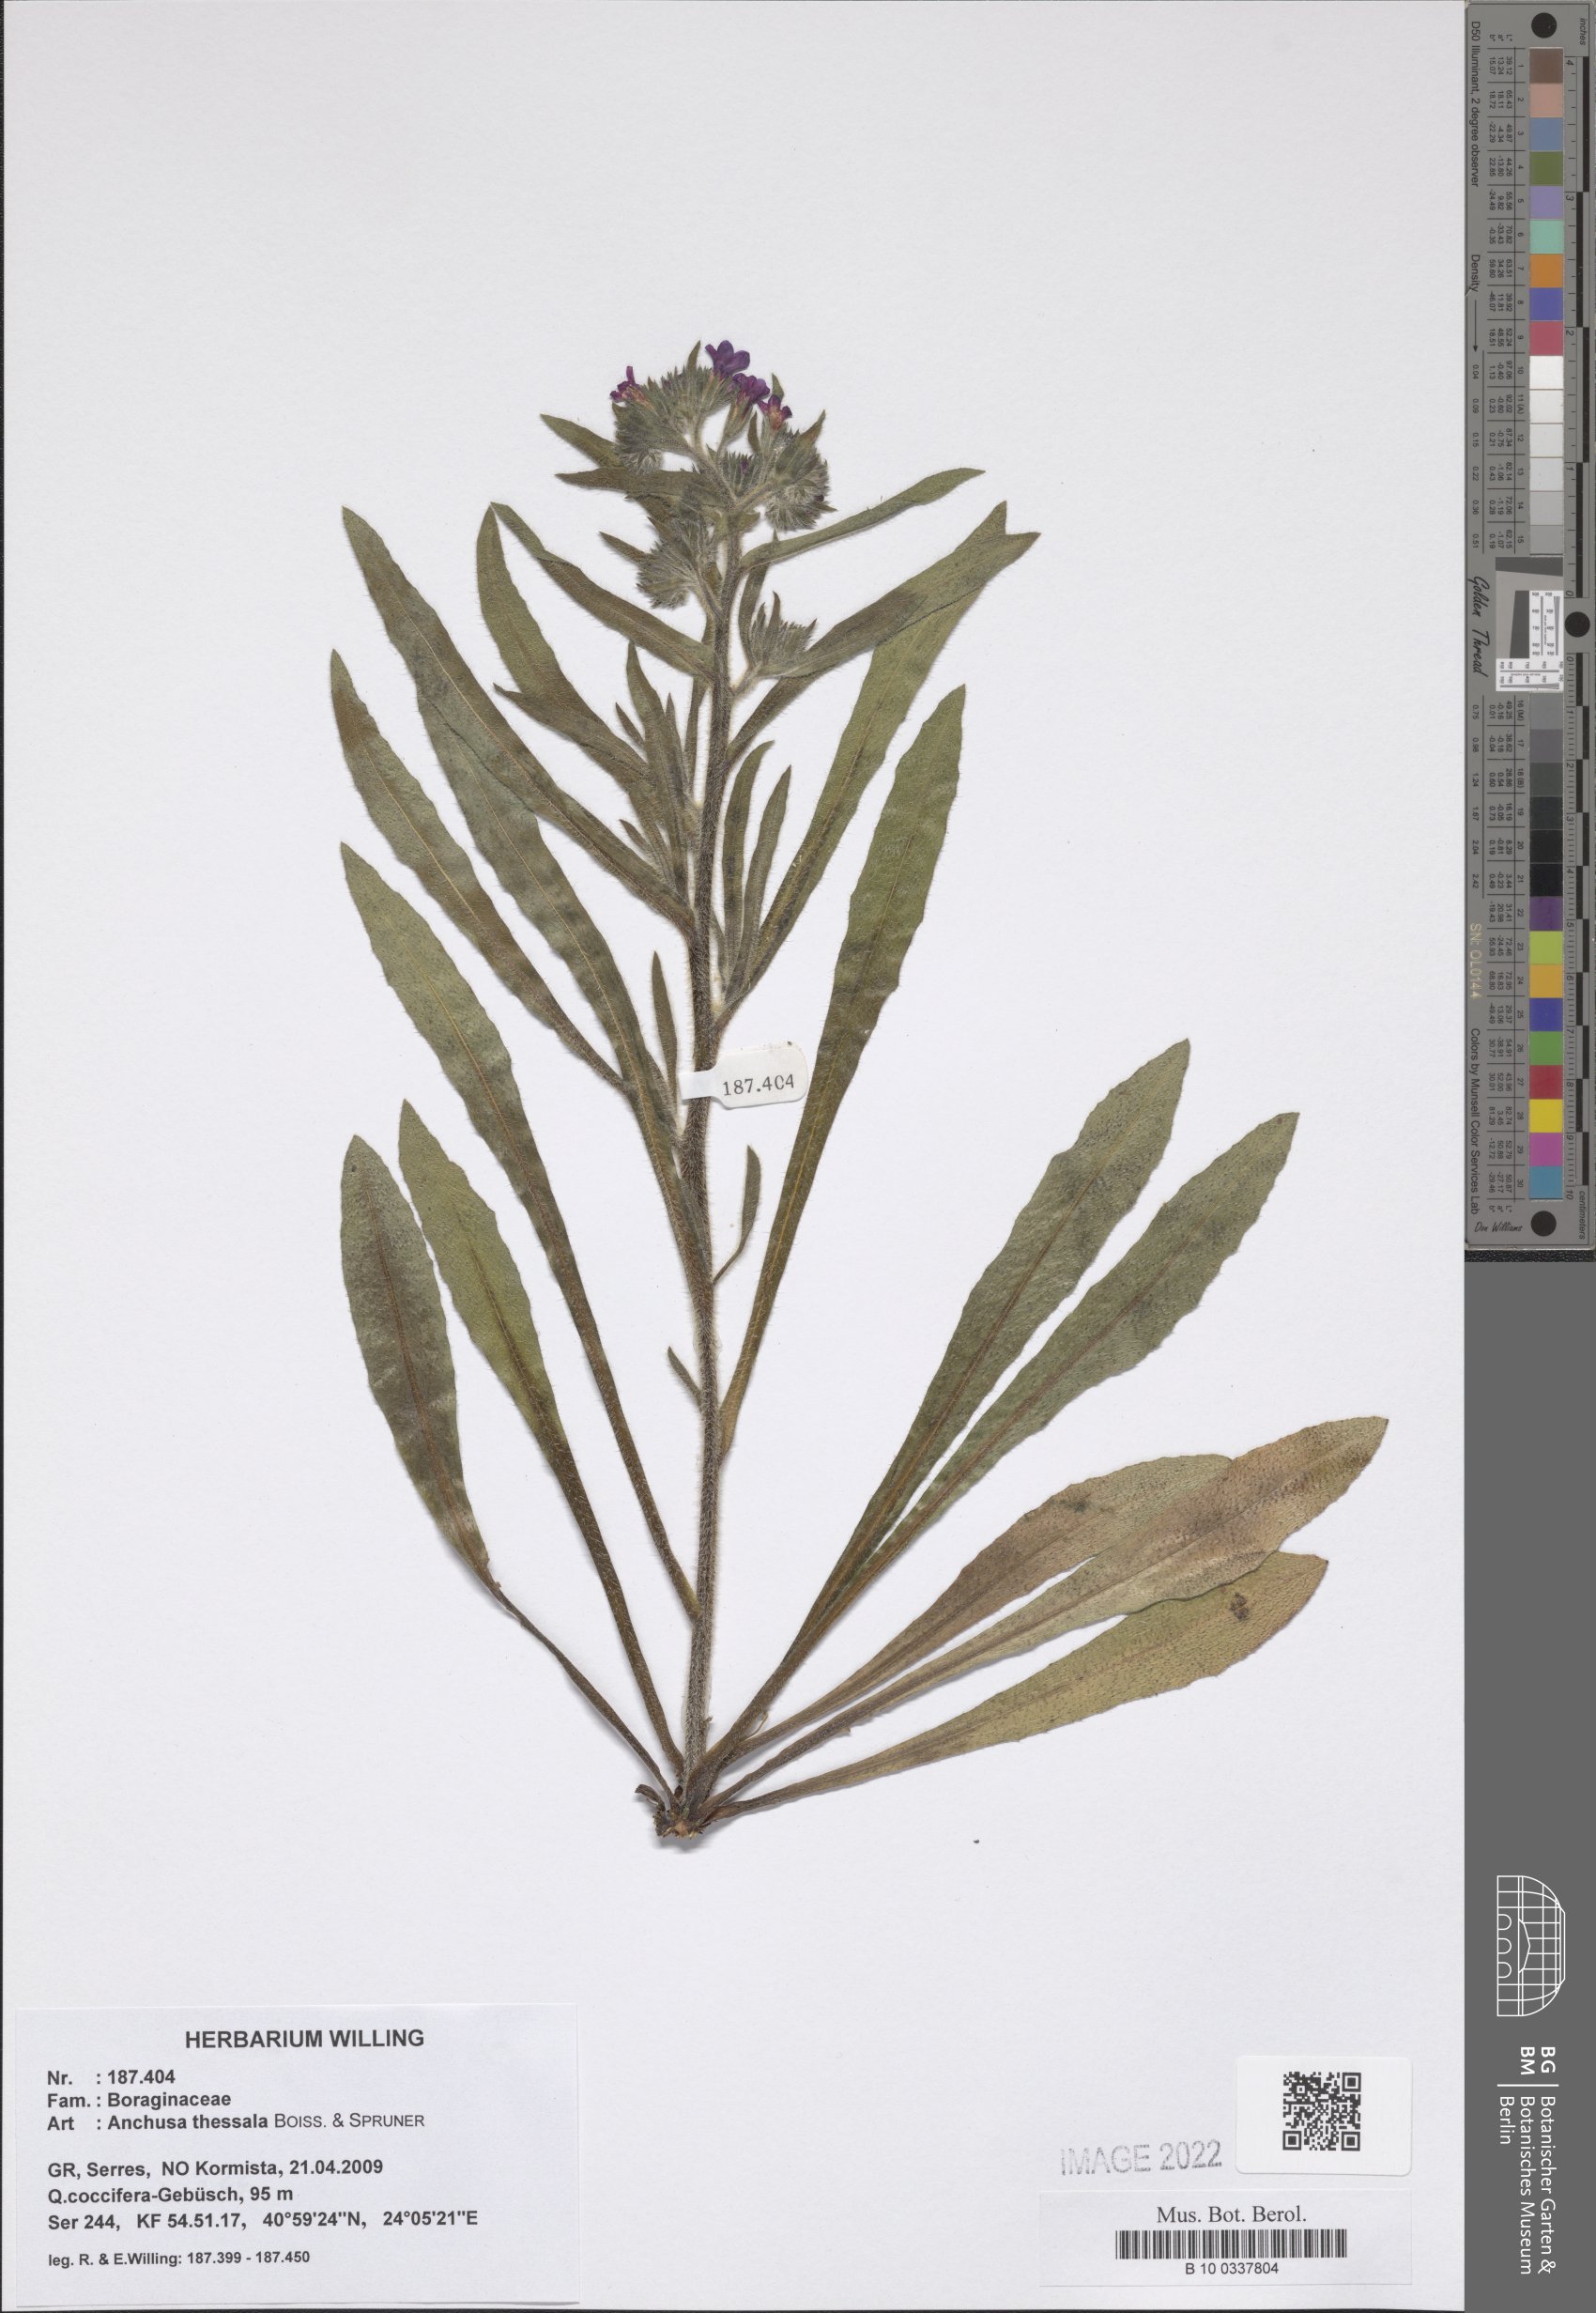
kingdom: Plantae
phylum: Tracheophyta
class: Magnoliopsida
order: Boraginales
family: Boraginaceae
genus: Anchusa
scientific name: Anchusa thessala
